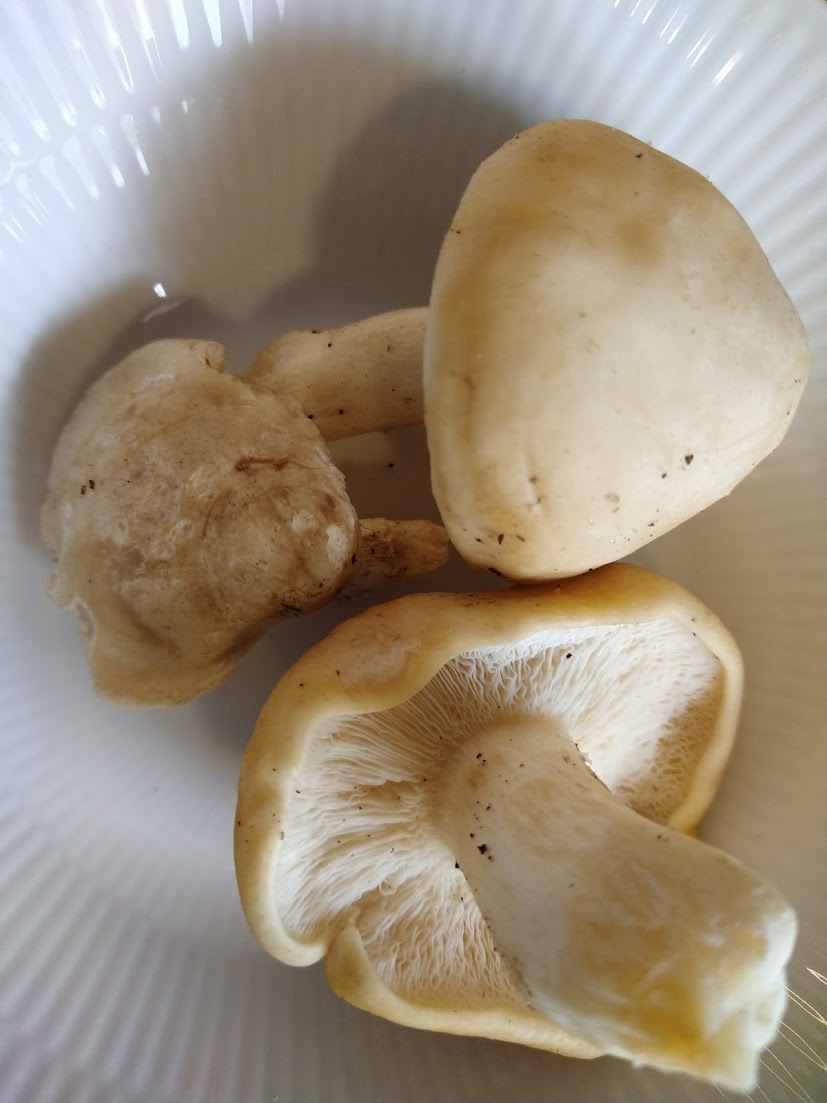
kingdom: Fungi
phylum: Basidiomycota
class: Agaricomycetes
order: Agaricales
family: Lyophyllaceae
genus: Calocybe
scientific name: Calocybe gambosa
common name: vårmusseron
